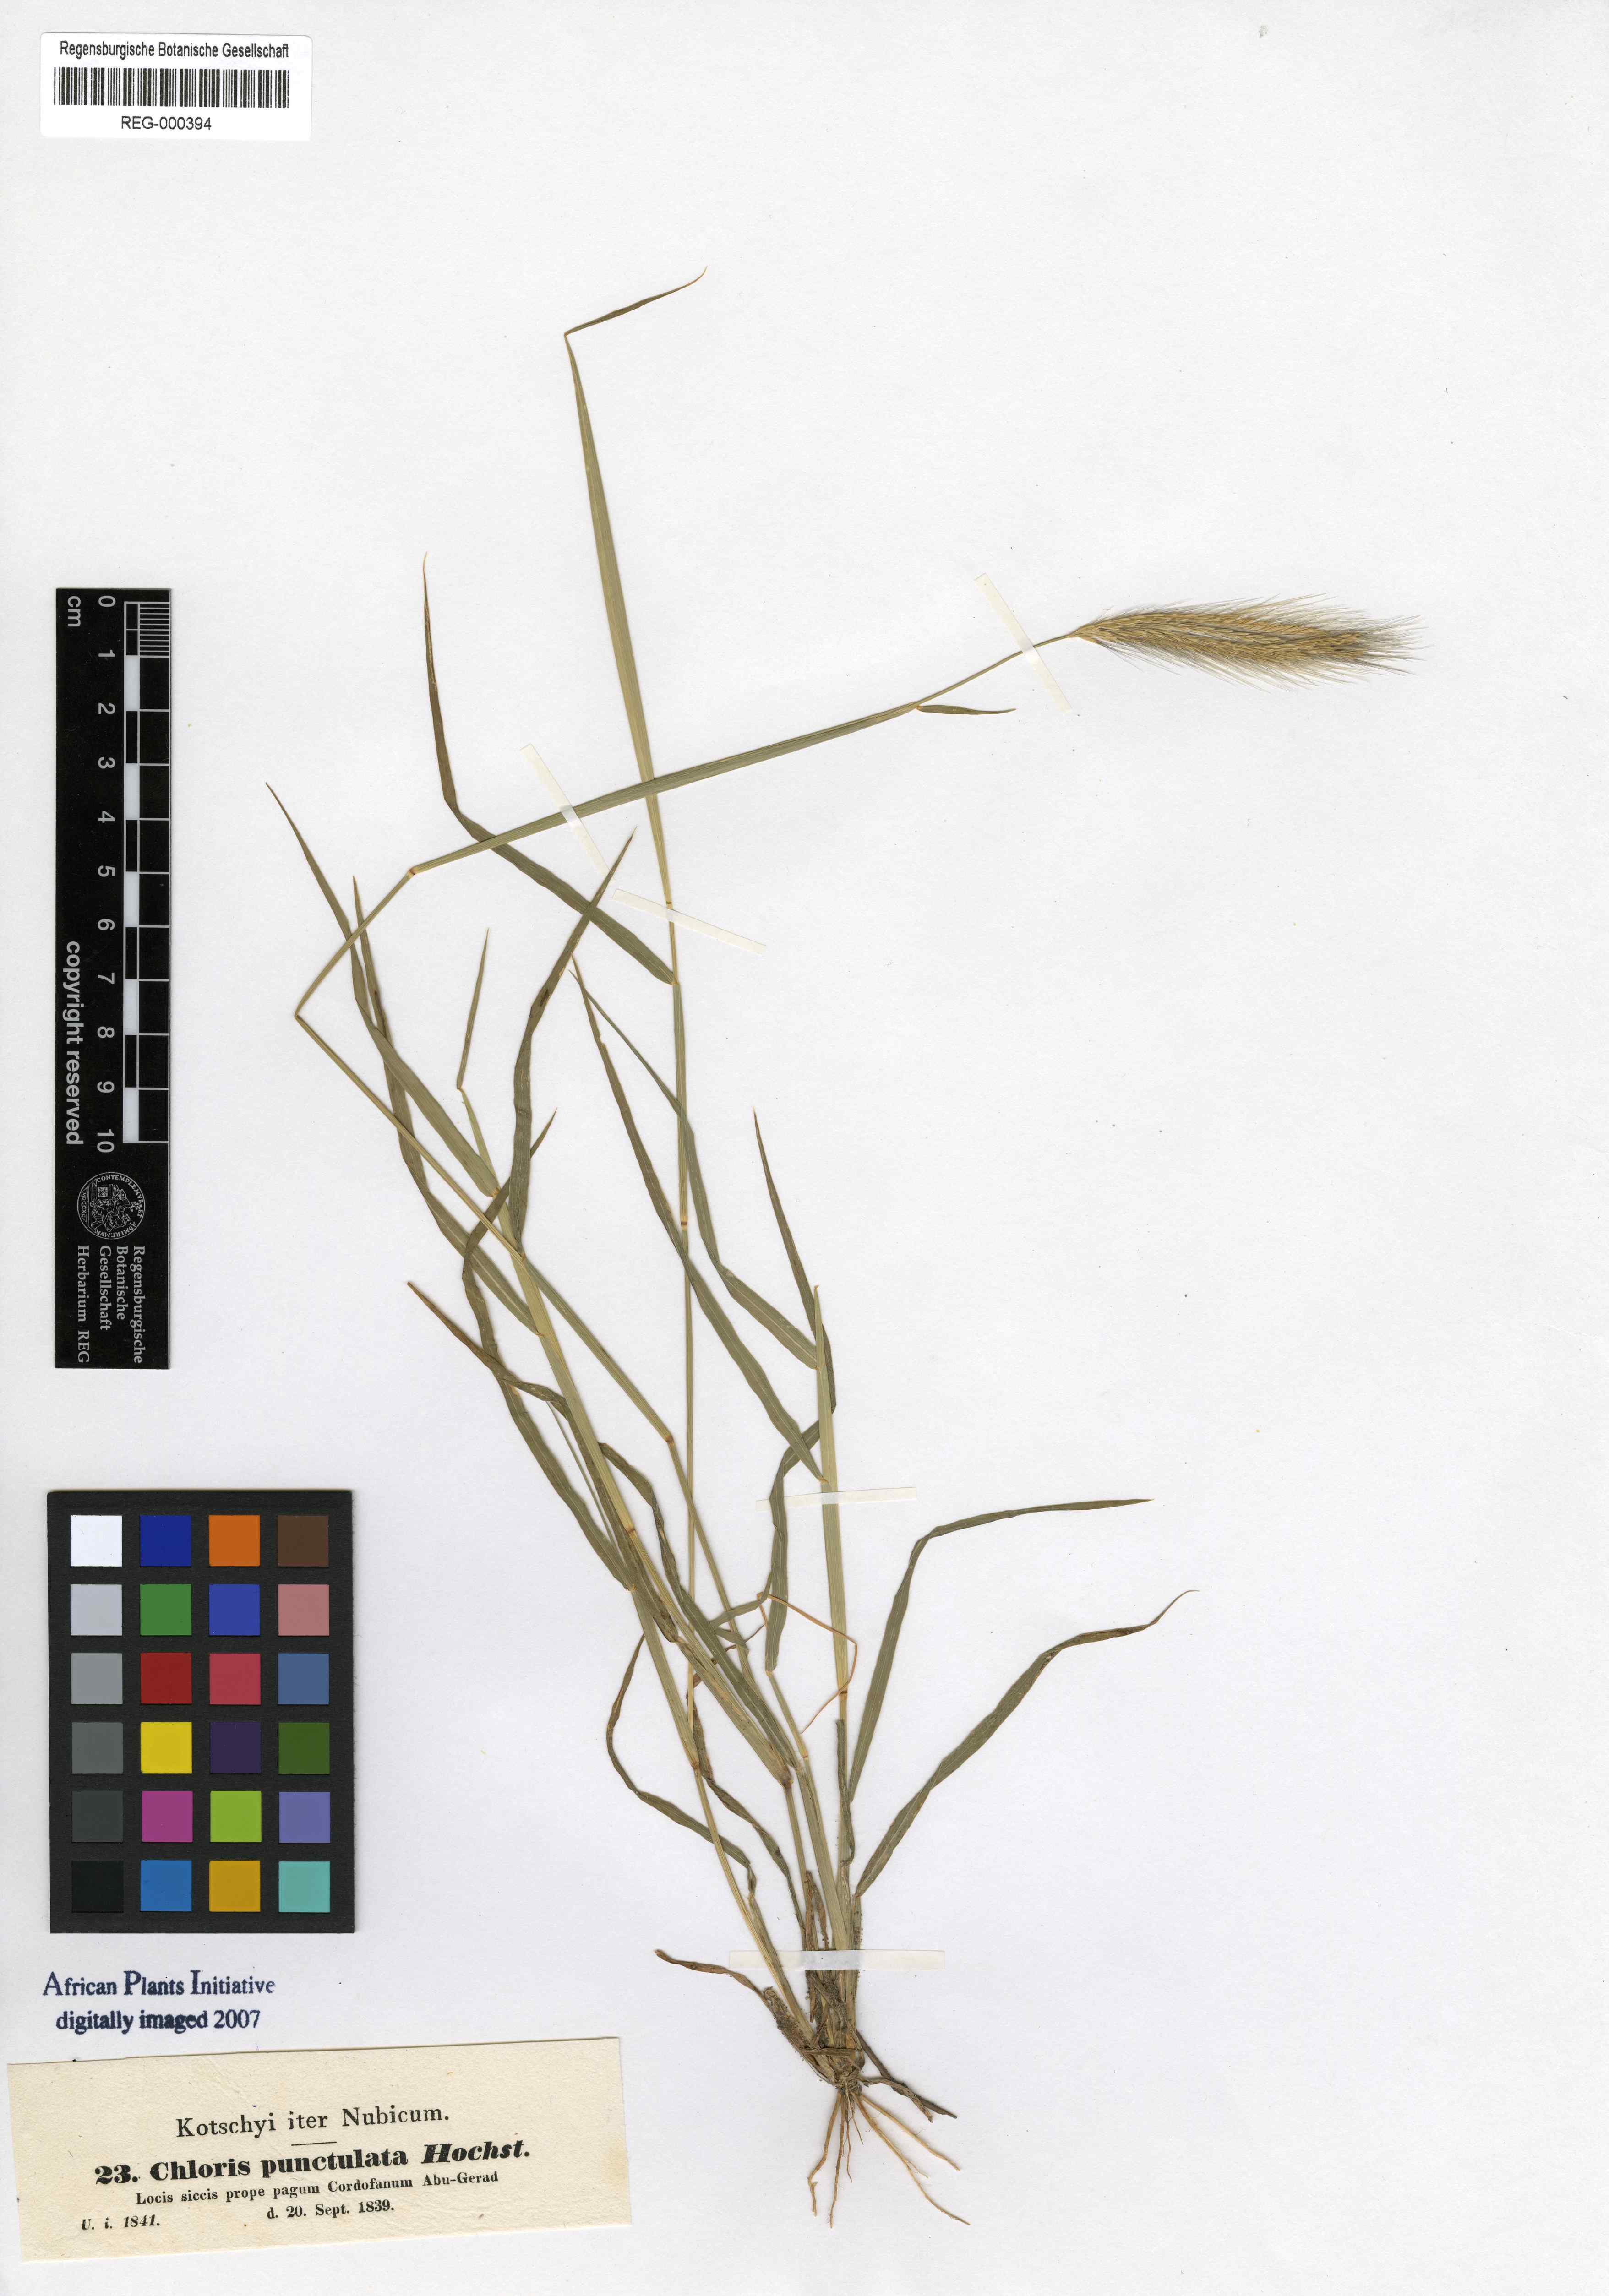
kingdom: Plantae
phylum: Tracheophyta
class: Liliopsida
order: Poales
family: Poaceae
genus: Enteropogon
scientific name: Enteropogon prieurii
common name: Prieur's umbrellagrass
